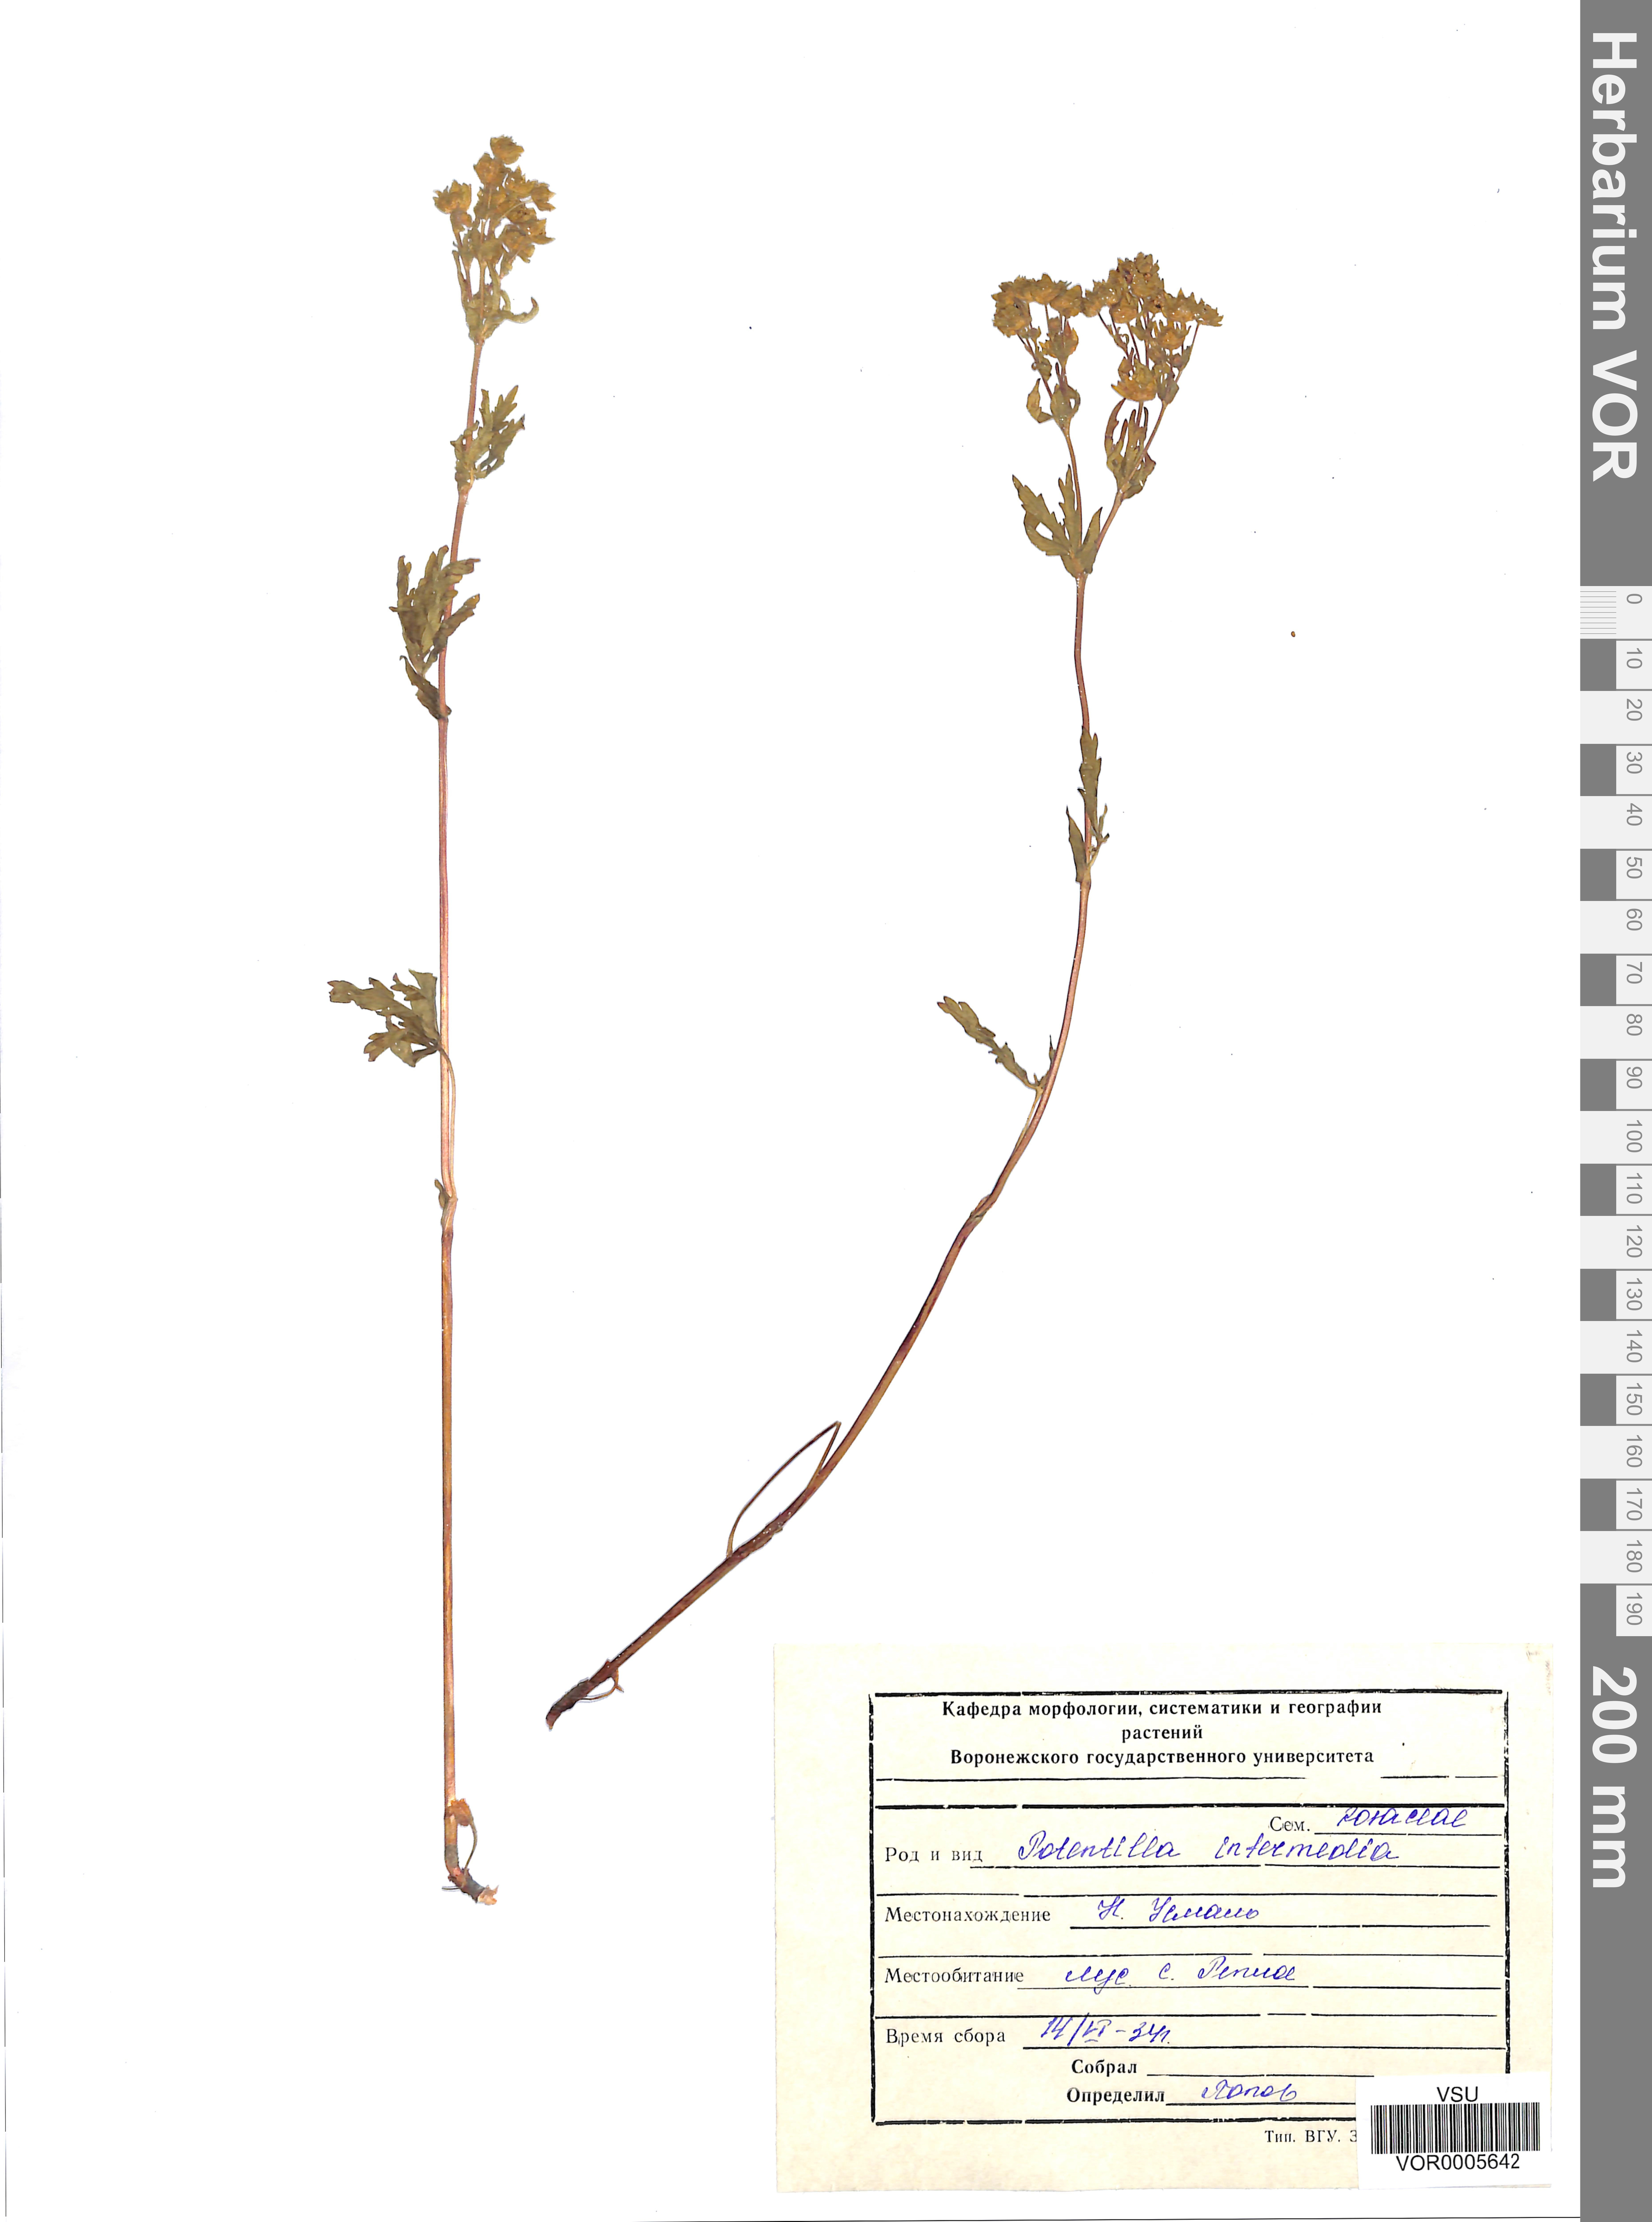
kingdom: Plantae
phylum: Tracheophyta
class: Magnoliopsida
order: Rosales
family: Rosaceae
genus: Potentilla
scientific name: Potentilla norvegica
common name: Ternate-leaved cinquefoil
